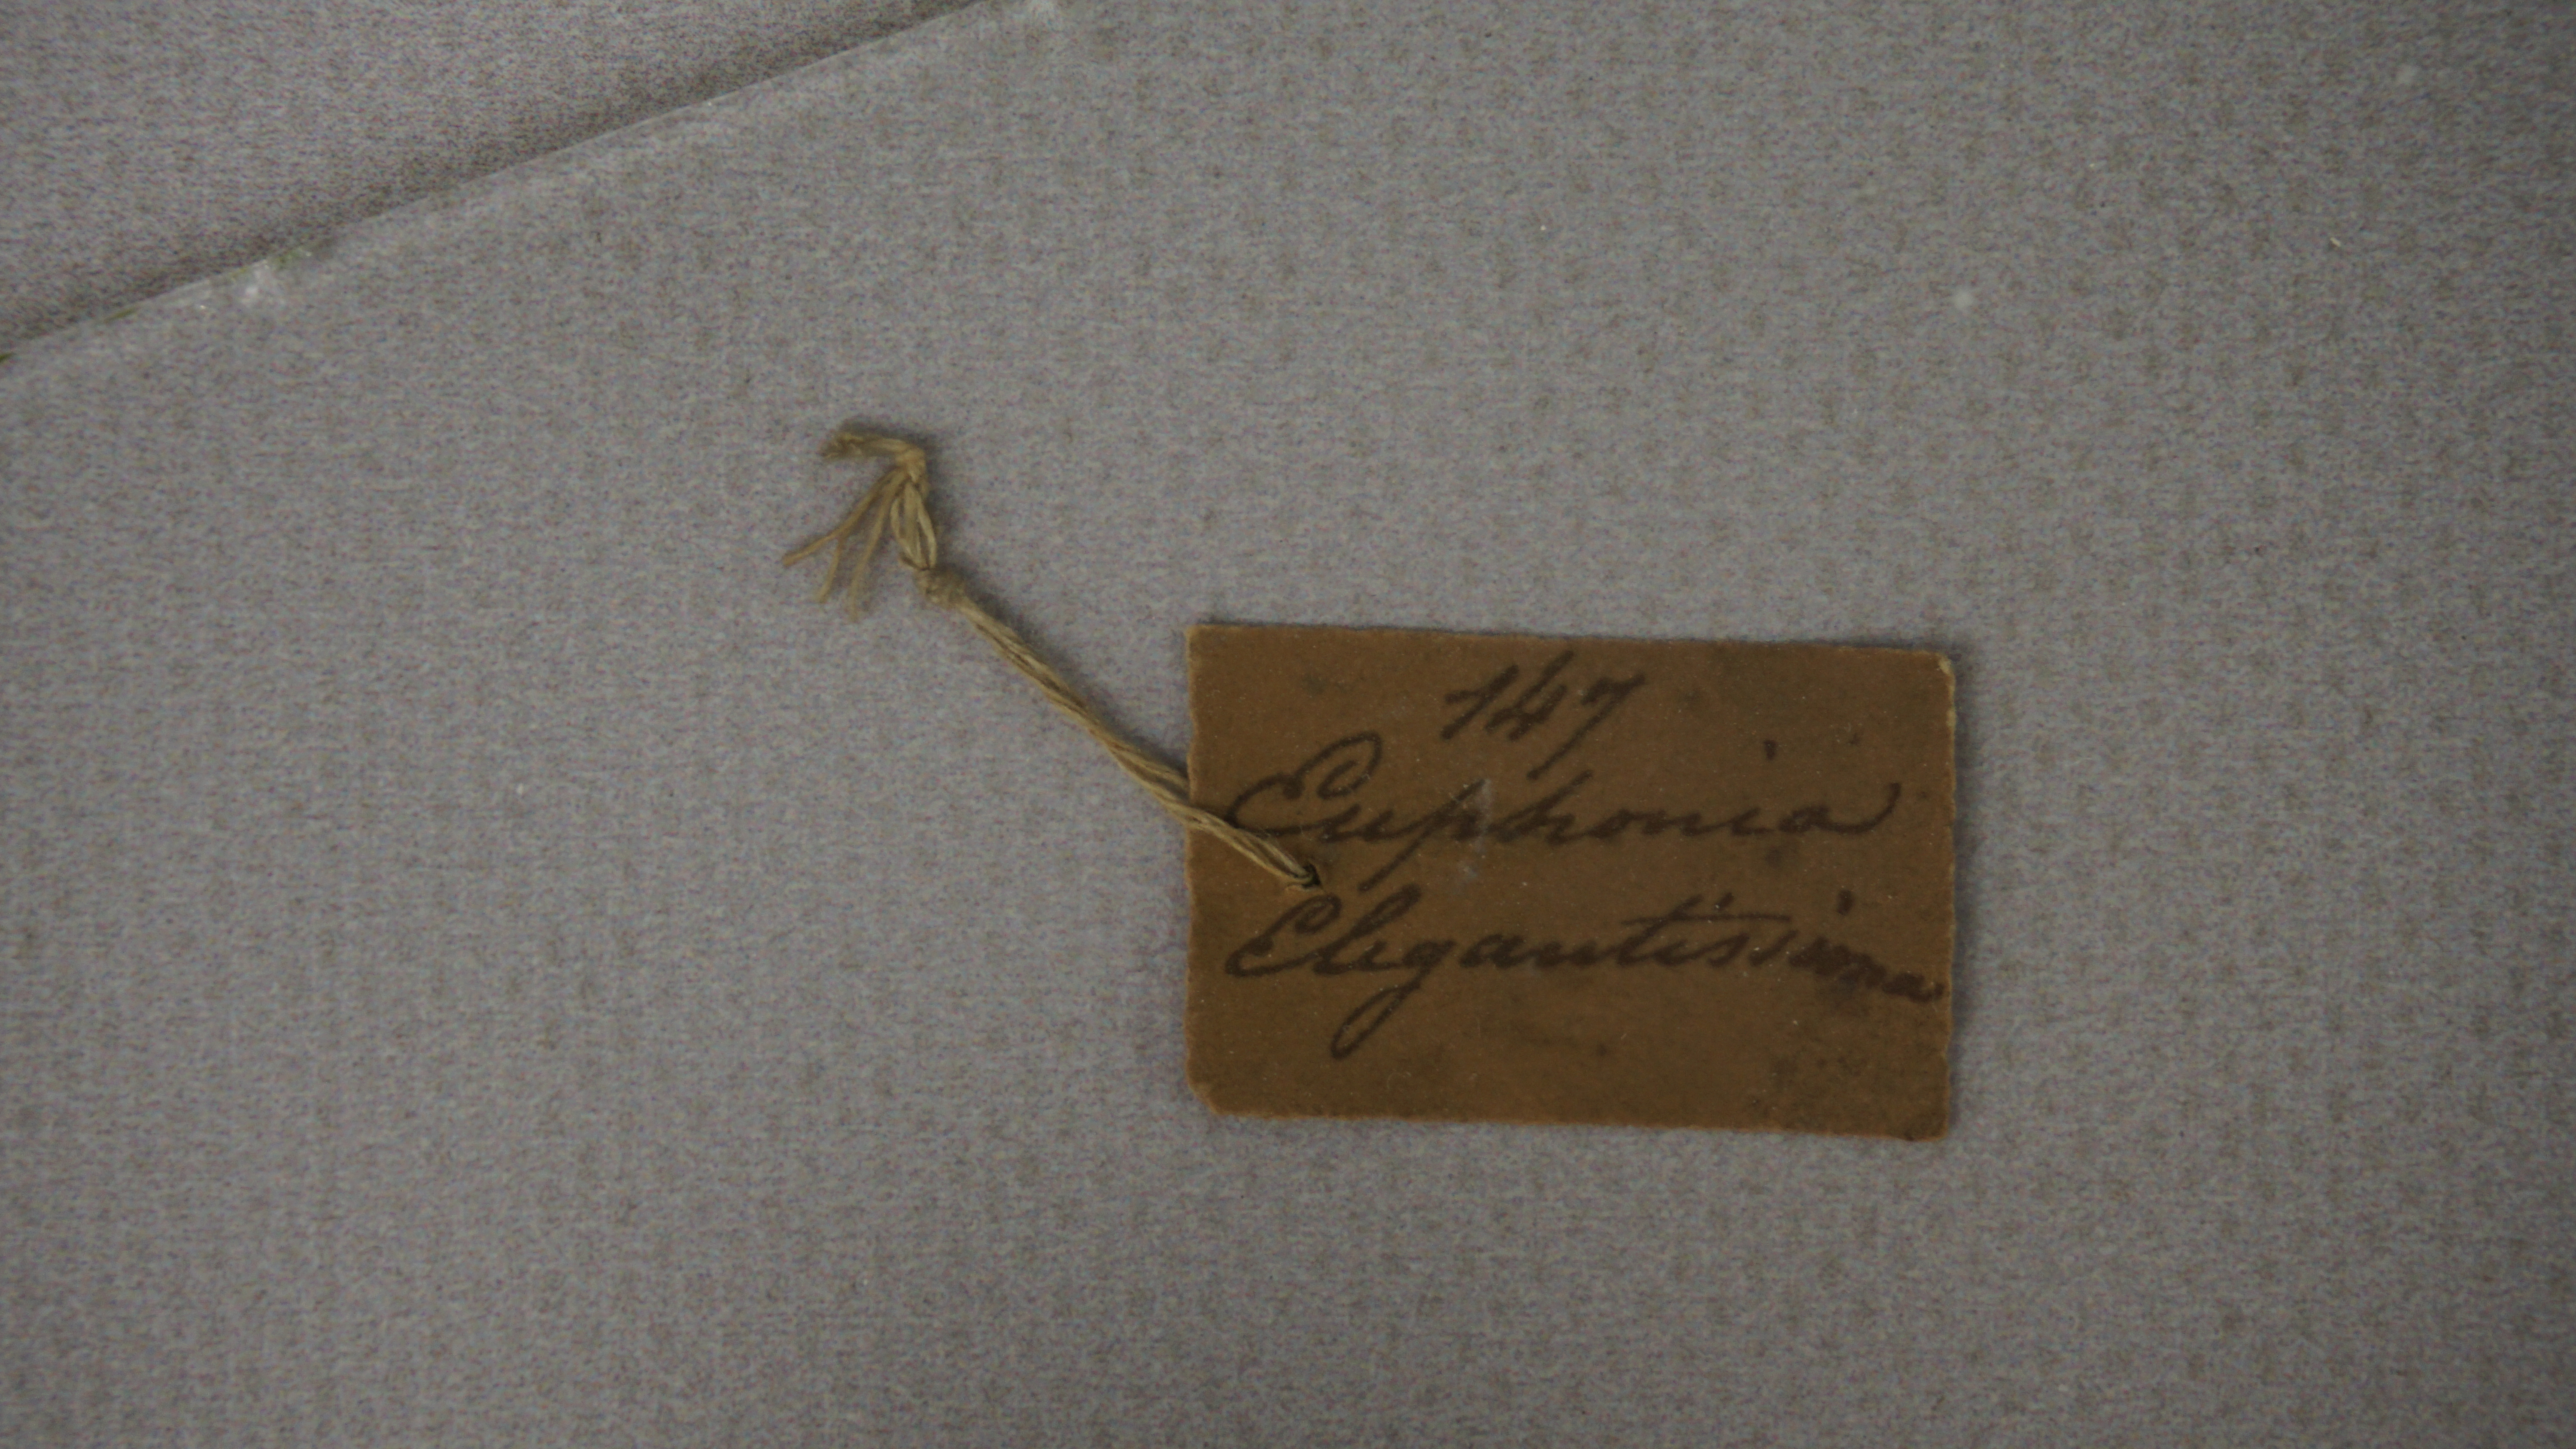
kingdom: Animalia
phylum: Chordata
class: Aves
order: Passeriformes
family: Fringillidae
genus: Euphonia
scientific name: Euphonia elegantissima
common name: Elegant euphonia
